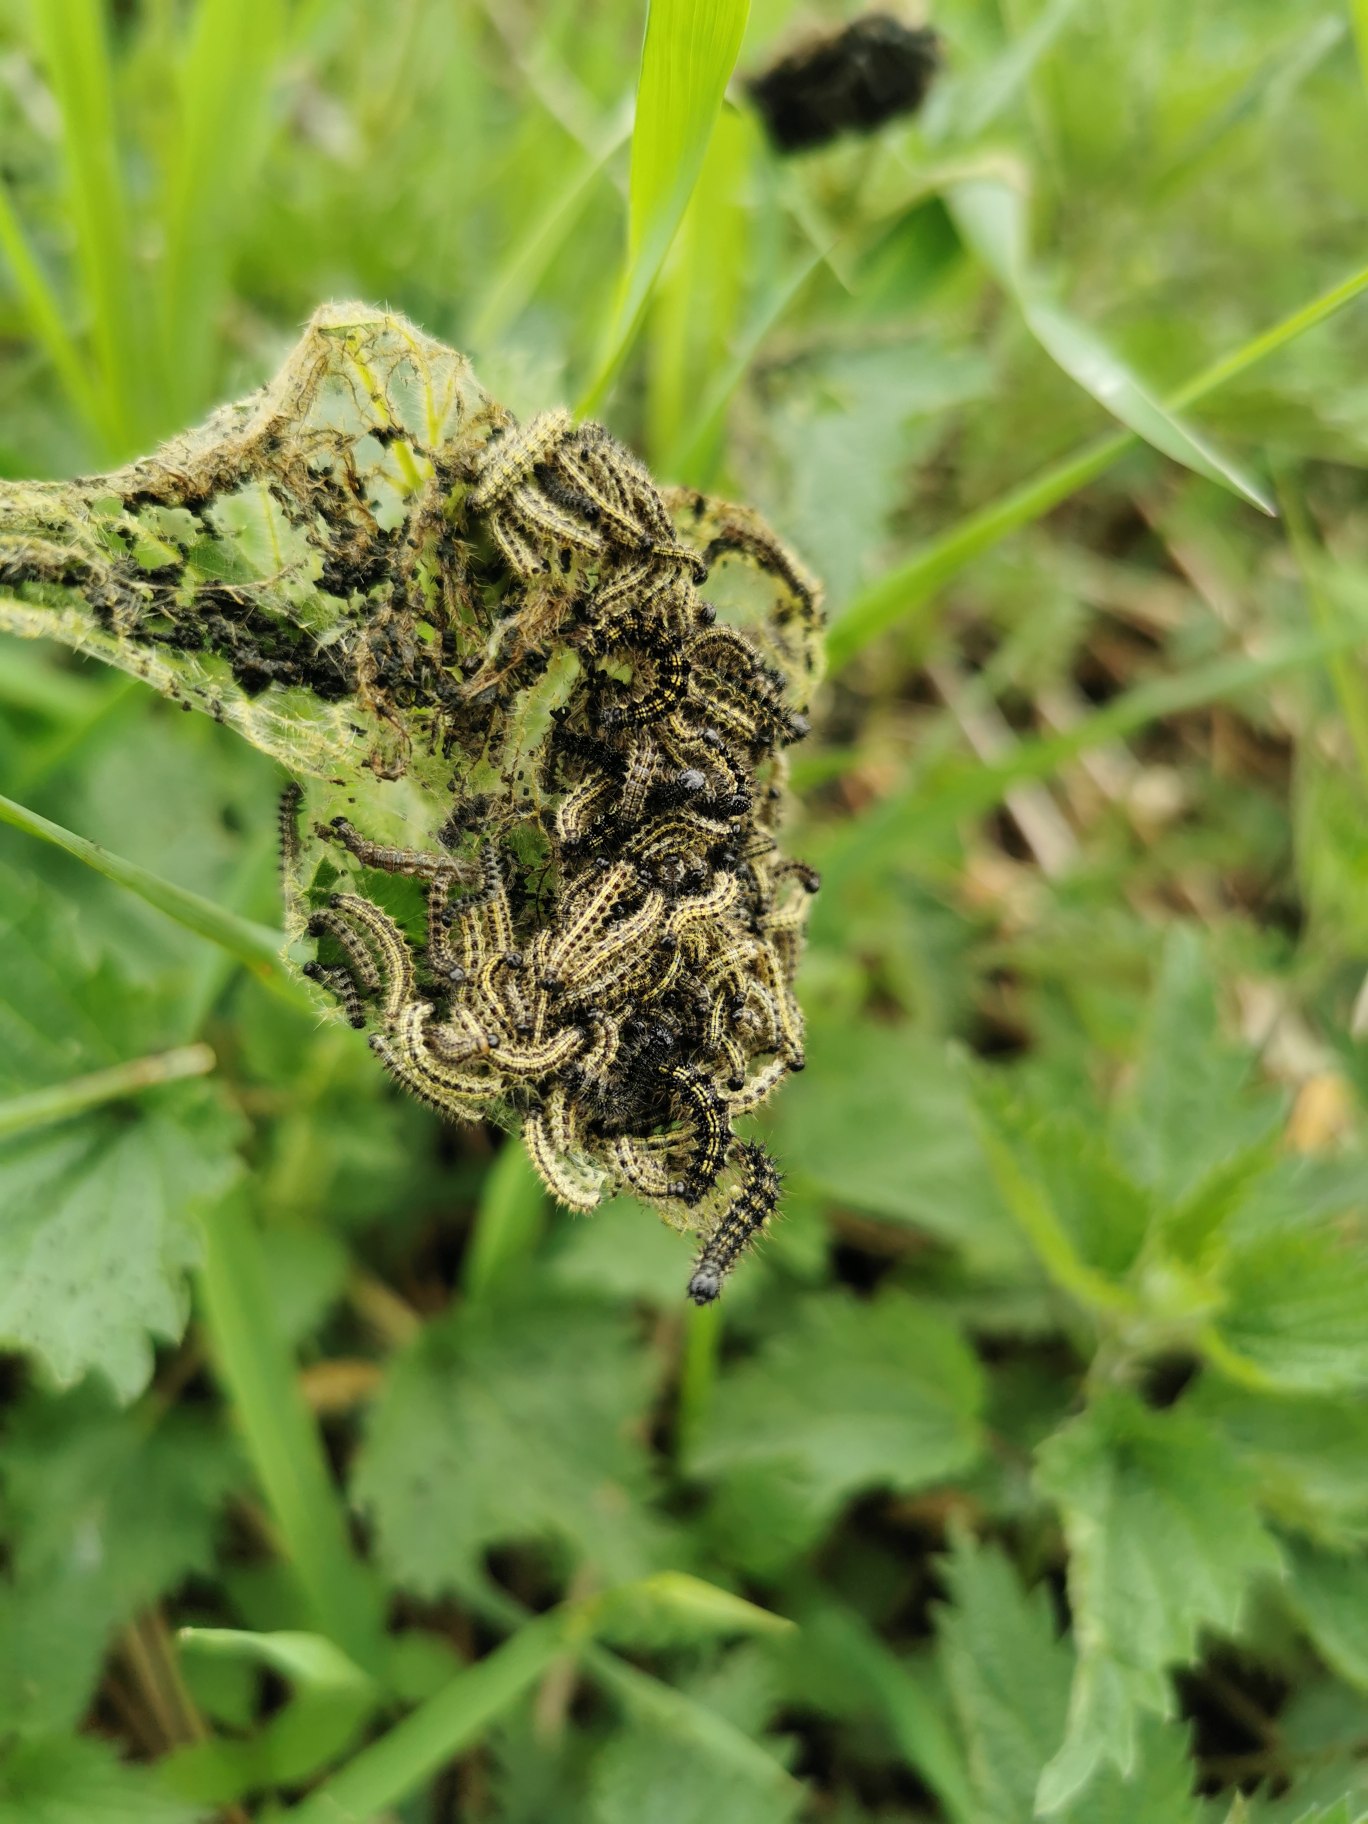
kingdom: Animalia
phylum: Arthropoda
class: Insecta
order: Lepidoptera
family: Nymphalidae
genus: Aglais
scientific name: Aglais urticae
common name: Nældens takvinge
